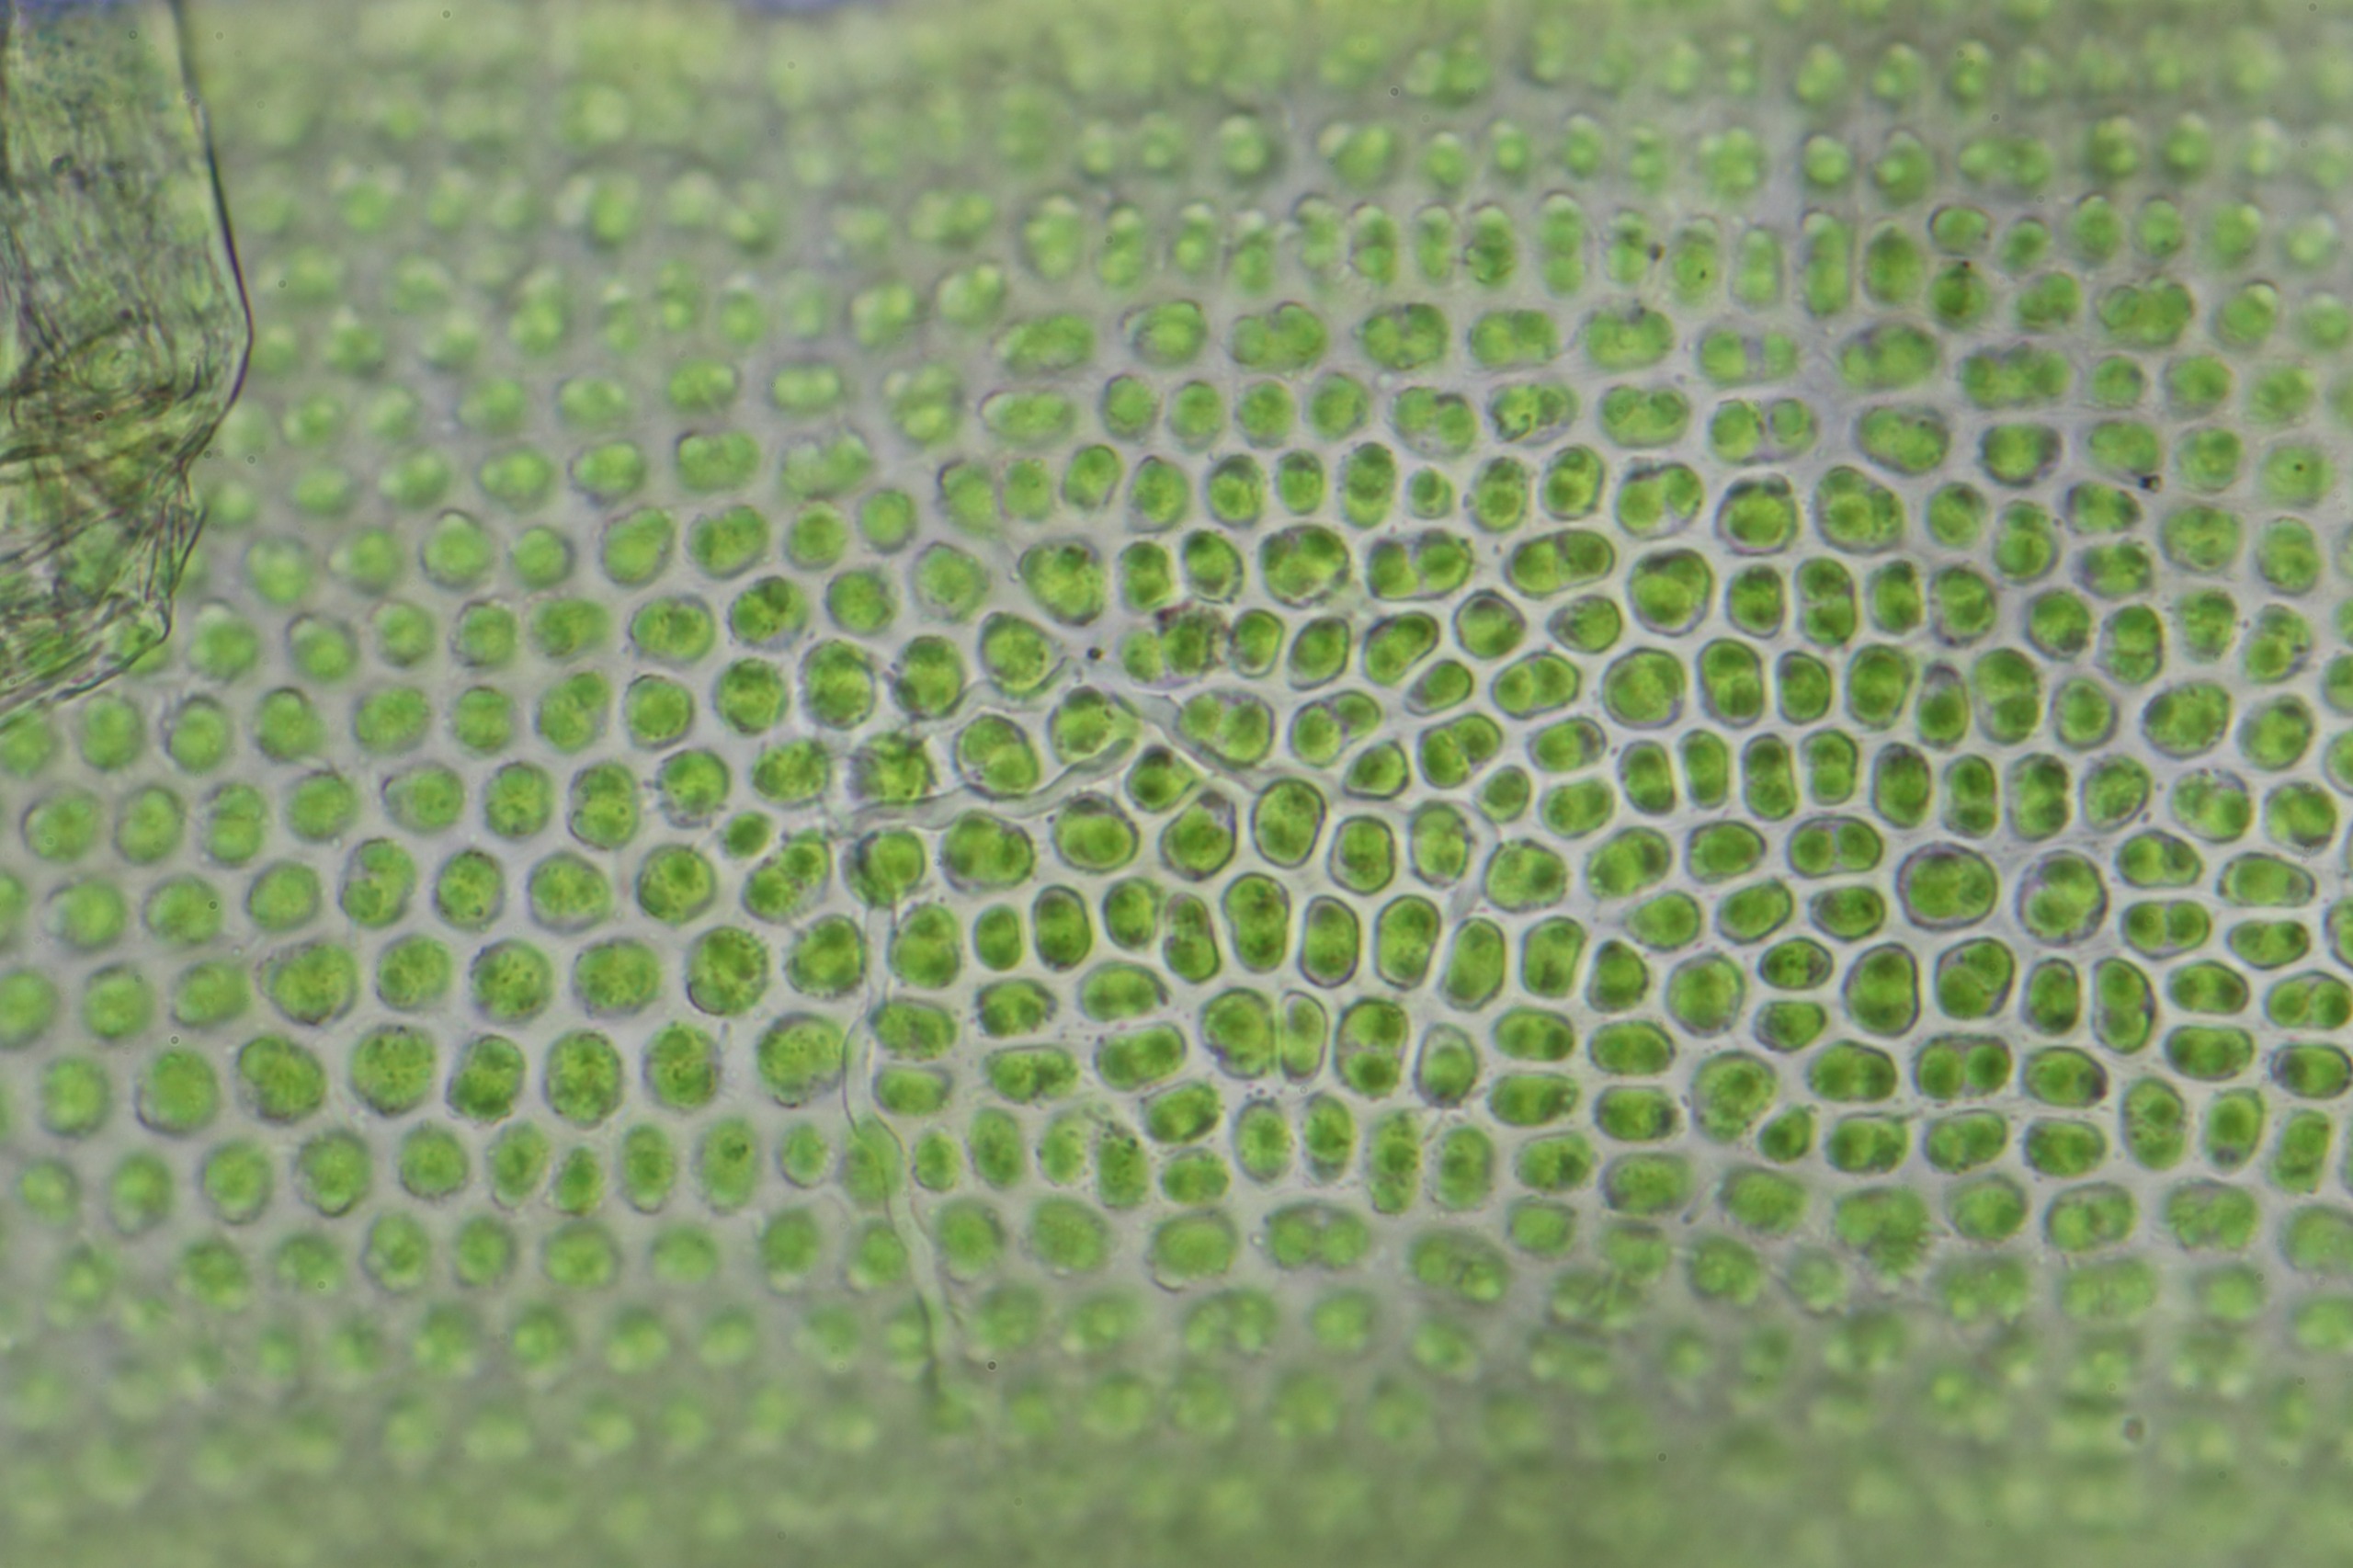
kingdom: Plantae
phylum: Bryophyta
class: Bryopsida
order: Pottiales
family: Pottiaceae
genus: Husnotiella
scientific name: Husnotiella sinuosa
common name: Bølget kalktuemos
